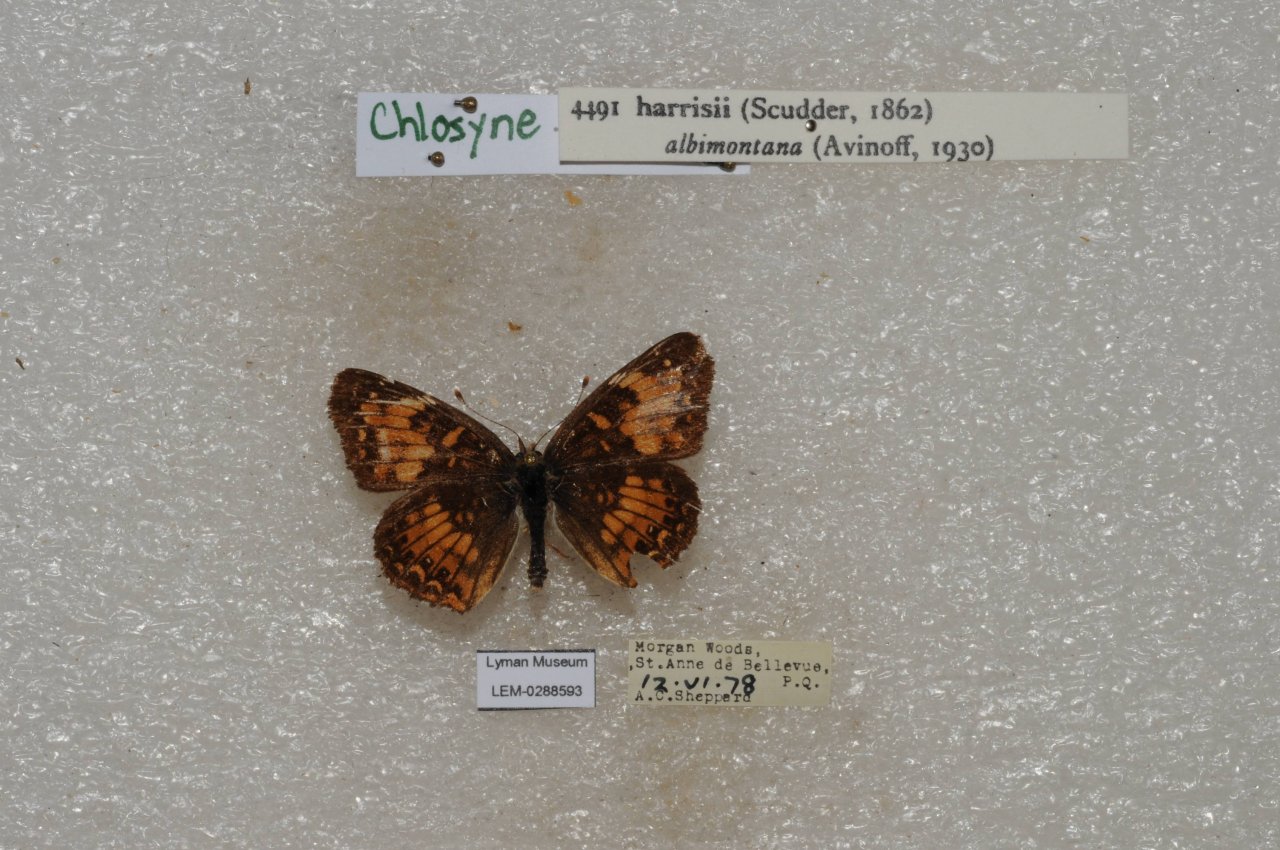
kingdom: Animalia
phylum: Arthropoda
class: Insecta
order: Lepidoptera
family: Nymphalidae
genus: Chlosyne
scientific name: Chlosyne harrisii
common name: Harris's Checkerspot
